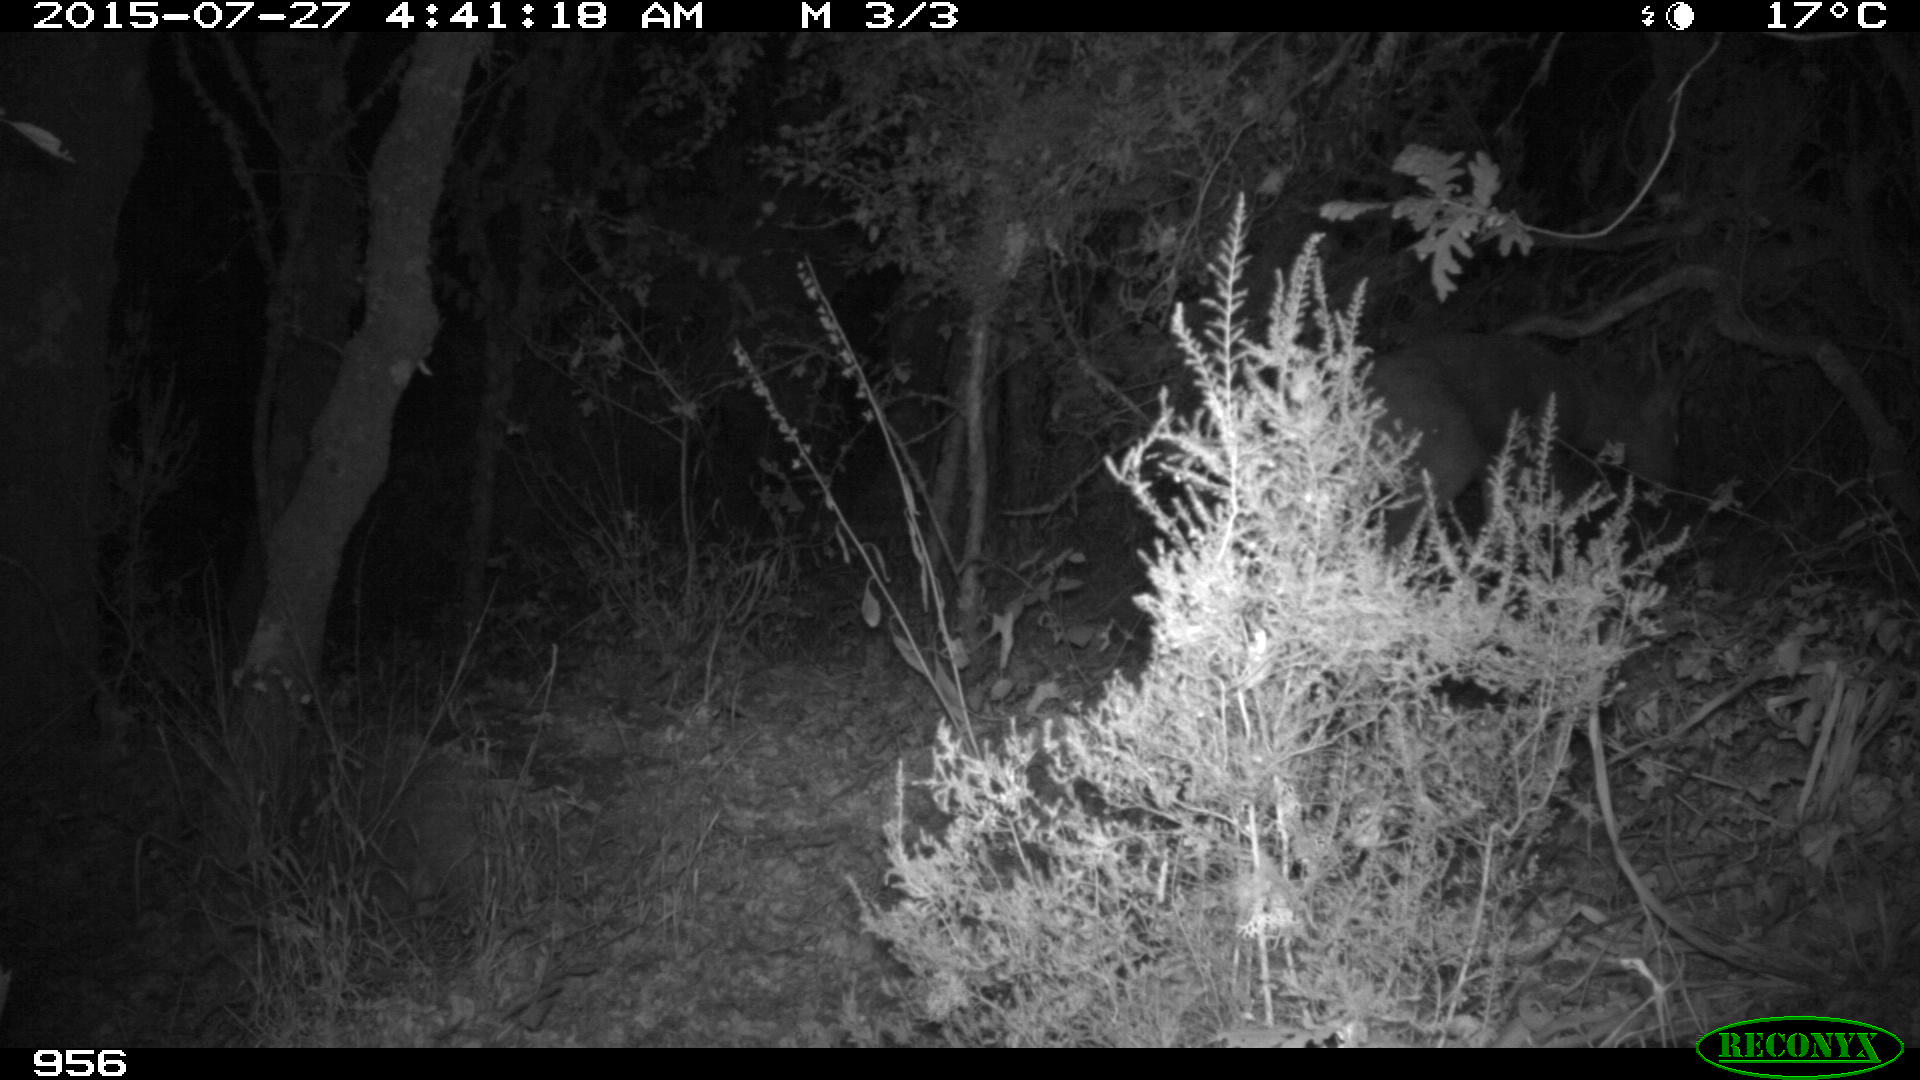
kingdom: Animalia
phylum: Chordata
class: Mammalia
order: Artiodactyla
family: Cervidae
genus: Capreolus
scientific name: Capreolus capreolus
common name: Western roe deer
